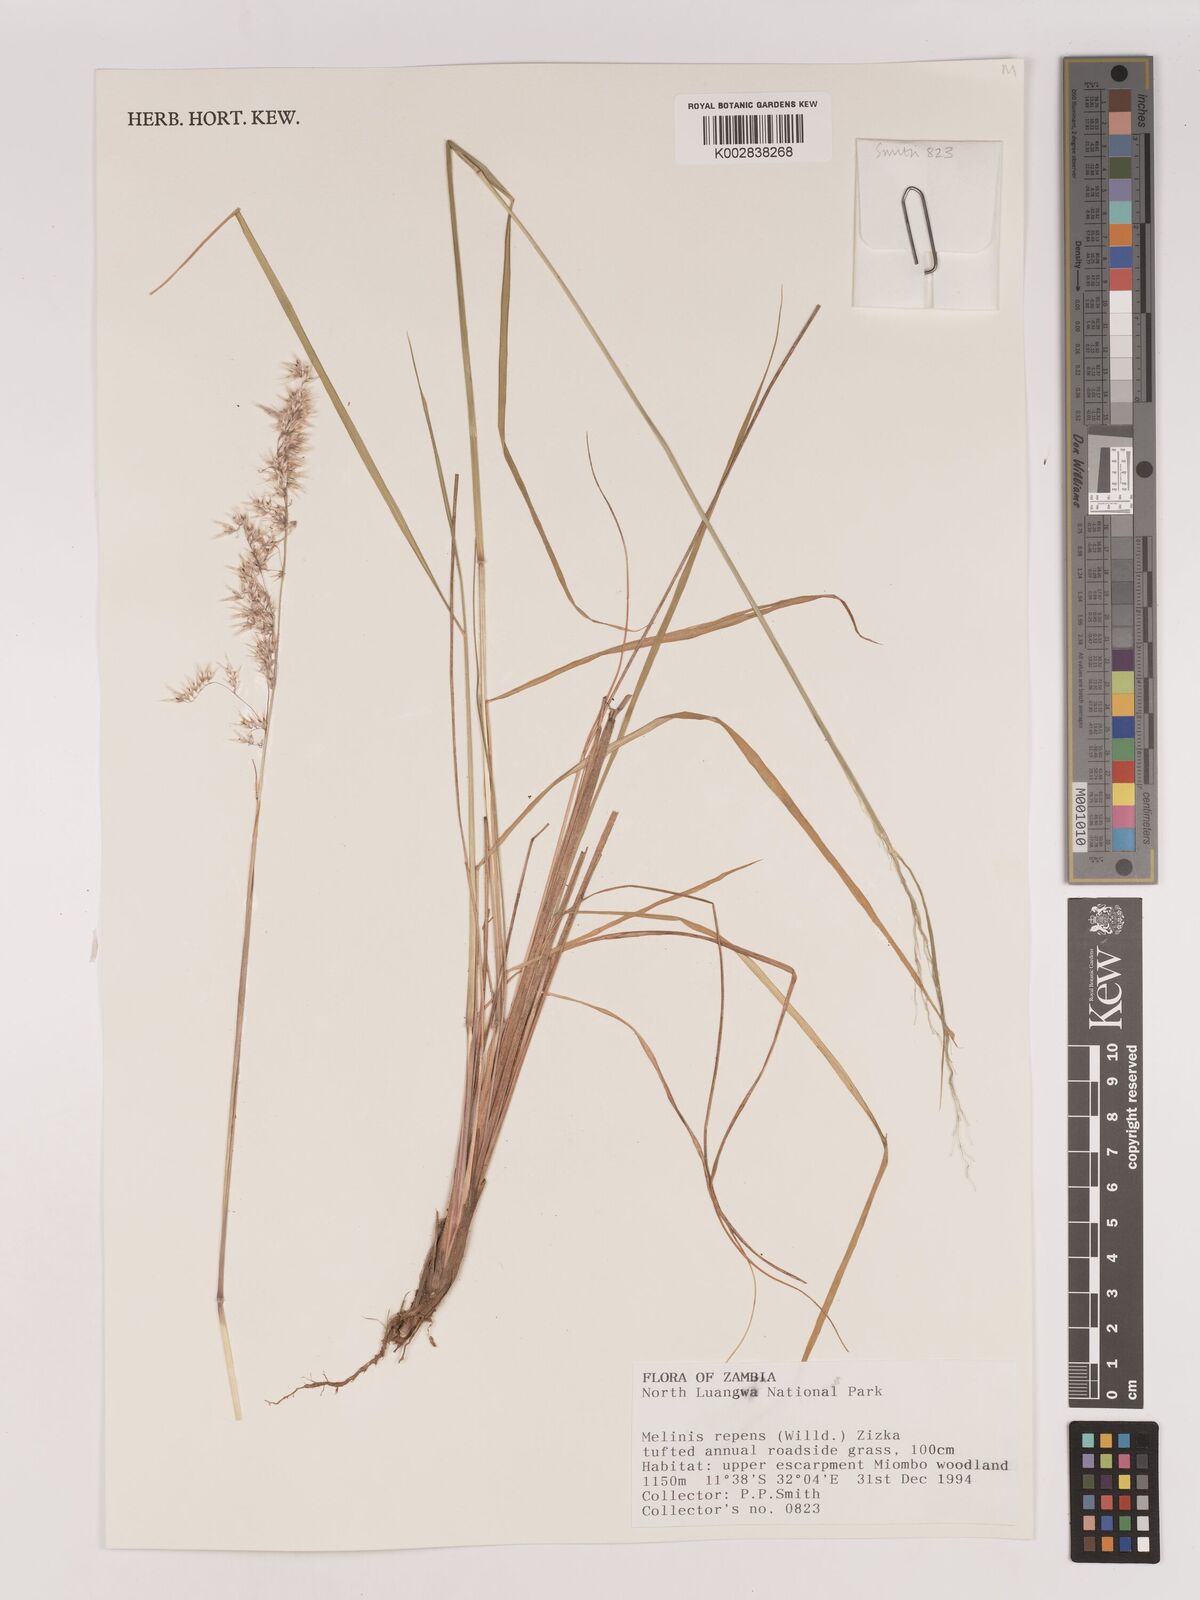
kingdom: Plantae
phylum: Tracheophyta
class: Liliopsida
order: Poales
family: Poaceae
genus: Melinis
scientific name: Melinis repens
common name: Rose natal grass
